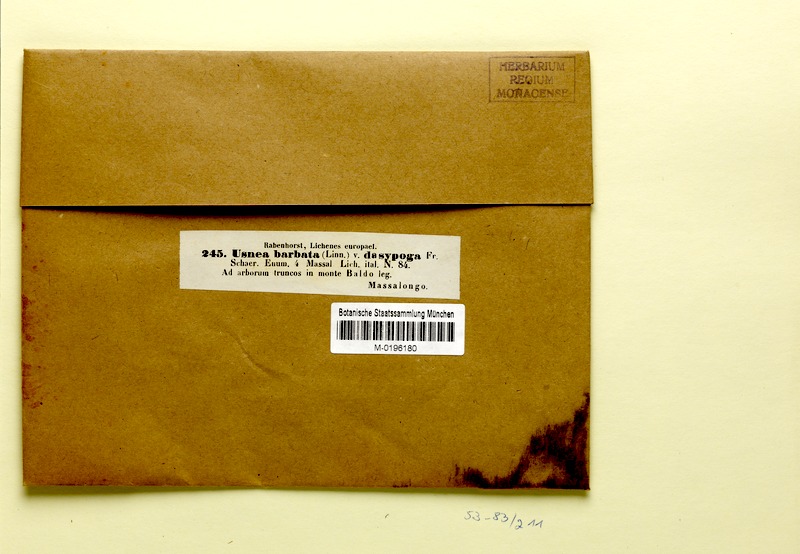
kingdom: Fungi
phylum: Ascomycota
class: Lecanoromycetes
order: Lecanorales
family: Parmeliaceae
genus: Usnea
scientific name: Usnea intermedia
